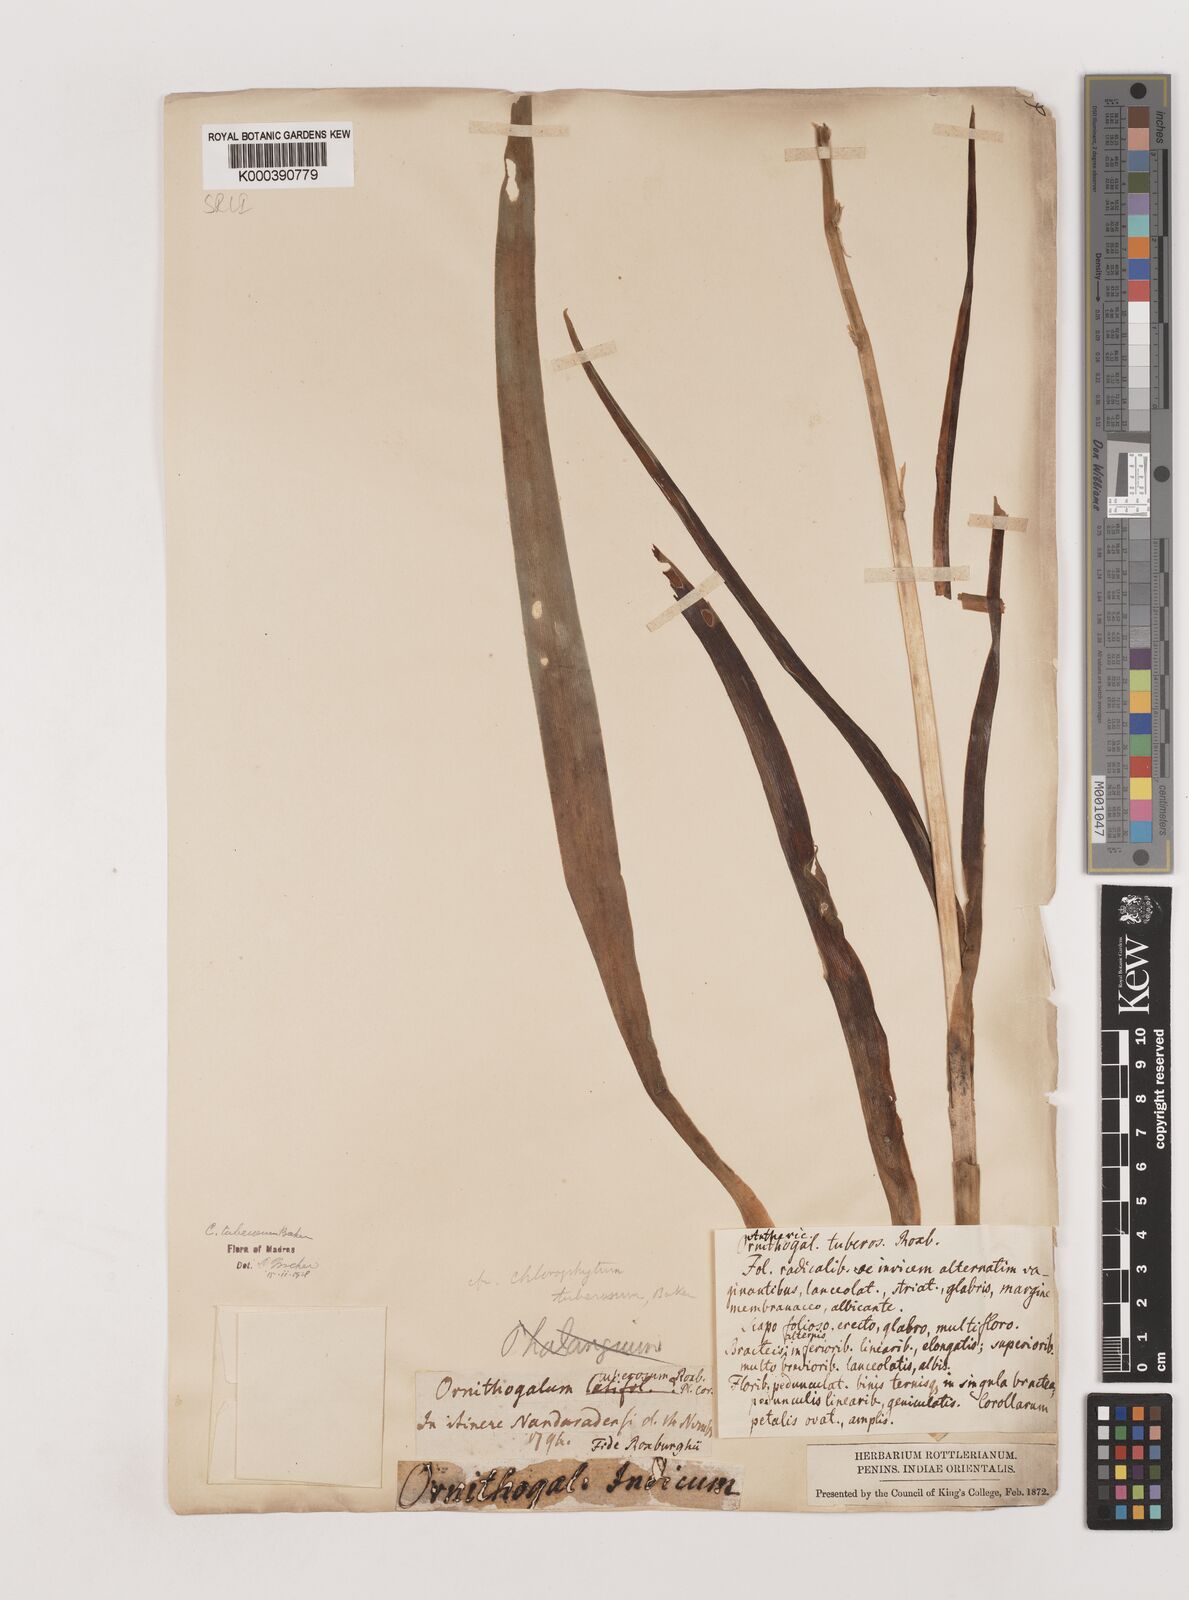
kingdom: Plantae
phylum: Tracheophyta
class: Liliopsida
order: Asparagales
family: Asparagaceae
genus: Chlorophytum
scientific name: Chlorophytum tuberosum
